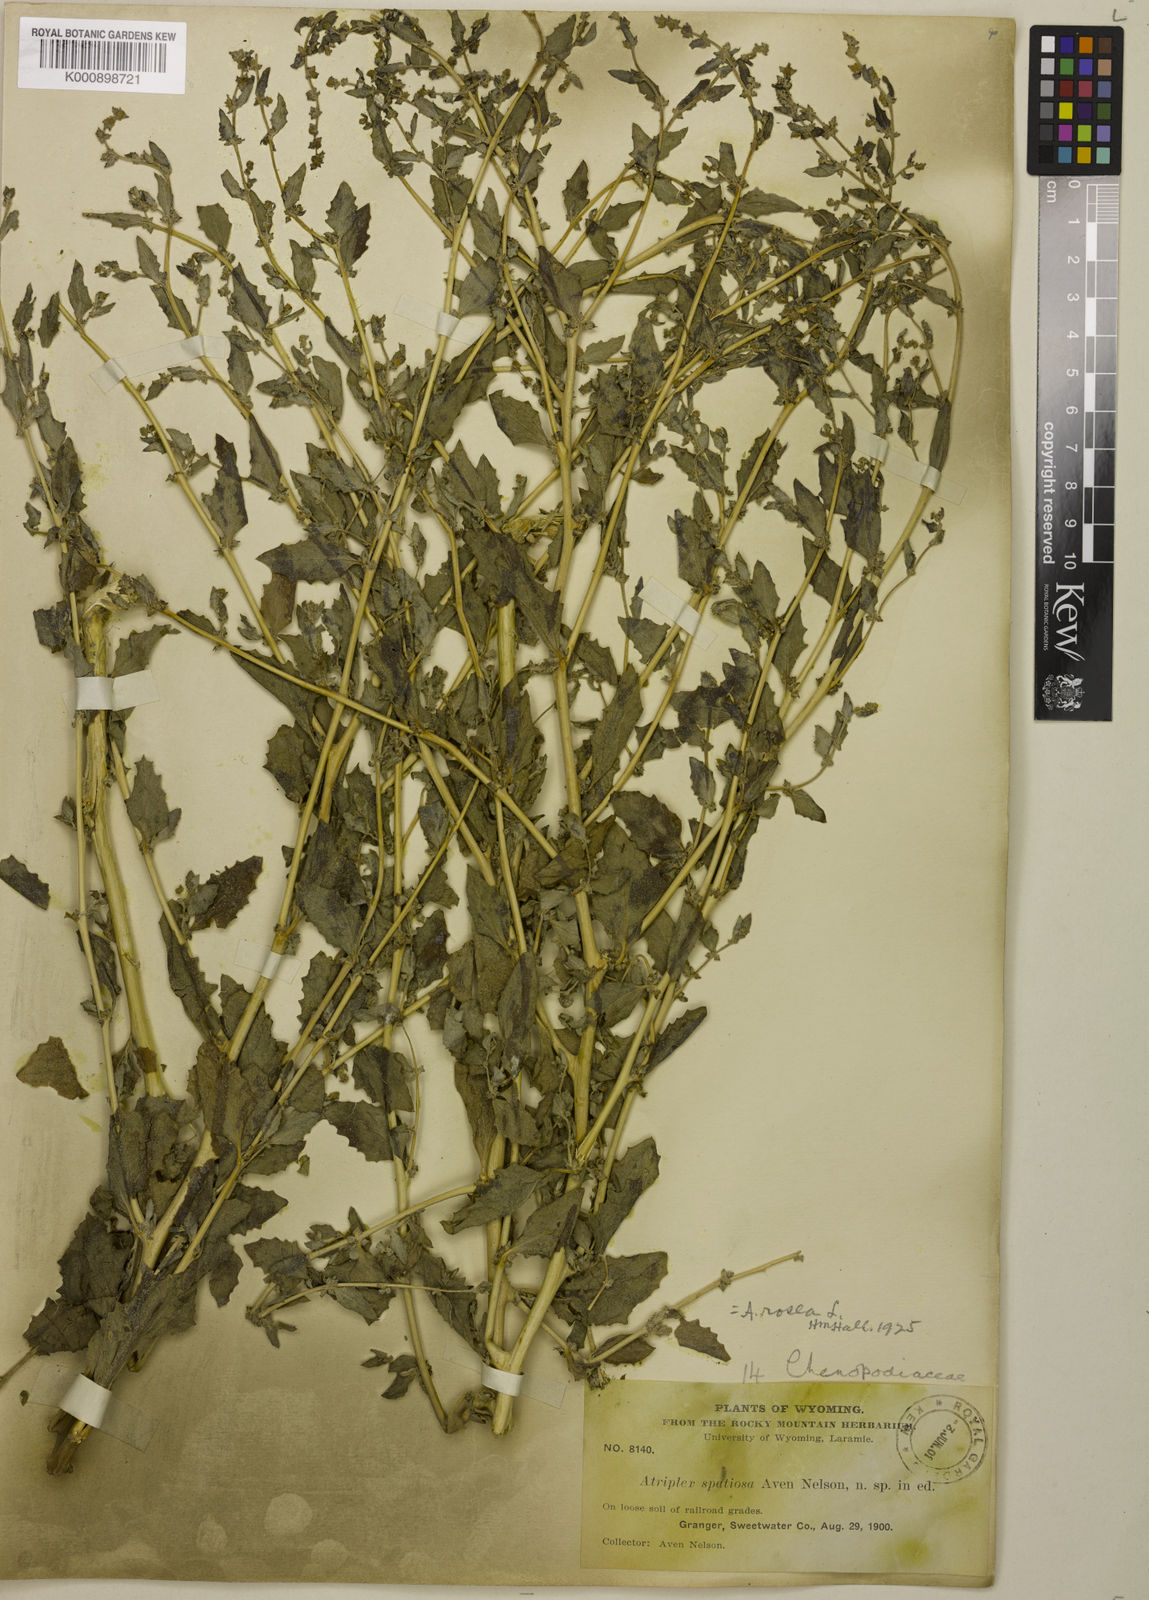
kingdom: Plantae
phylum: Tracheophyta
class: Magnoliopsida
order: Caryophyllales
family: Amaranthaceae
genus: Atriplex
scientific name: Atriplex rosea
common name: Tumbling saltweed
